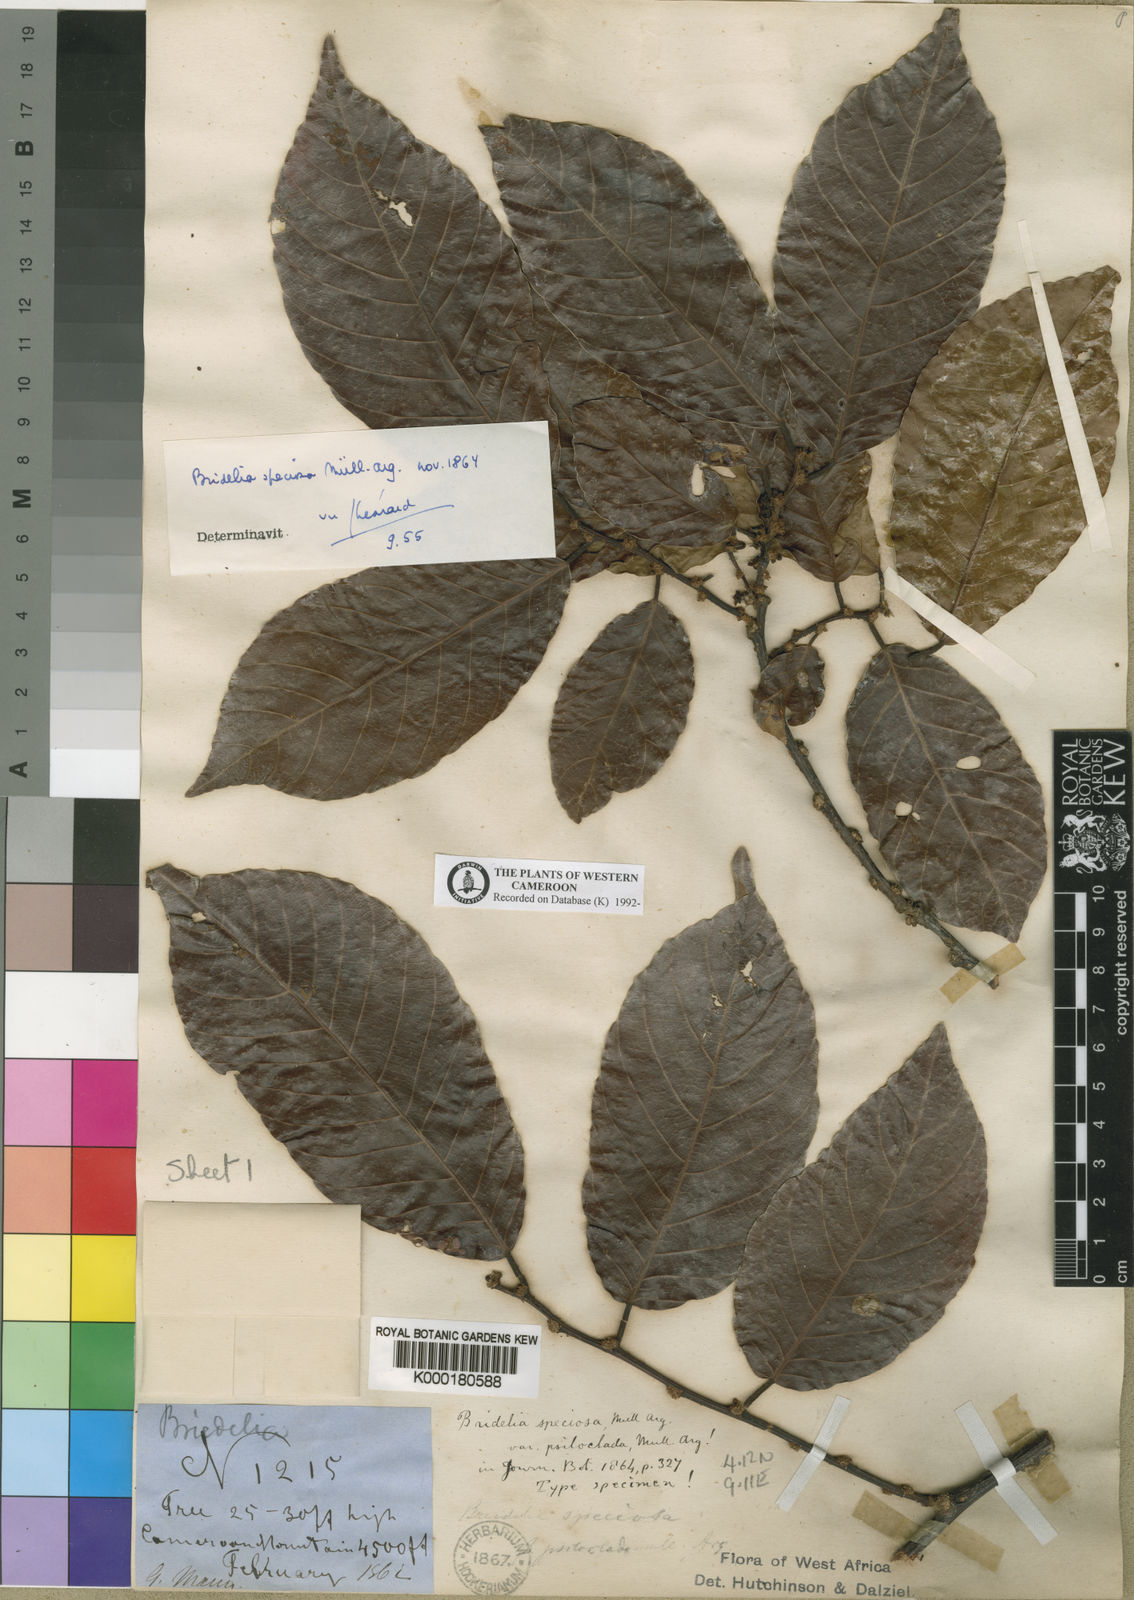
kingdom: Plantae
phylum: Tracheophyta
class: Magnoliopsida
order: Malpighiales
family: Phyllanthaceae
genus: Bridelia
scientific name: Bridelia
